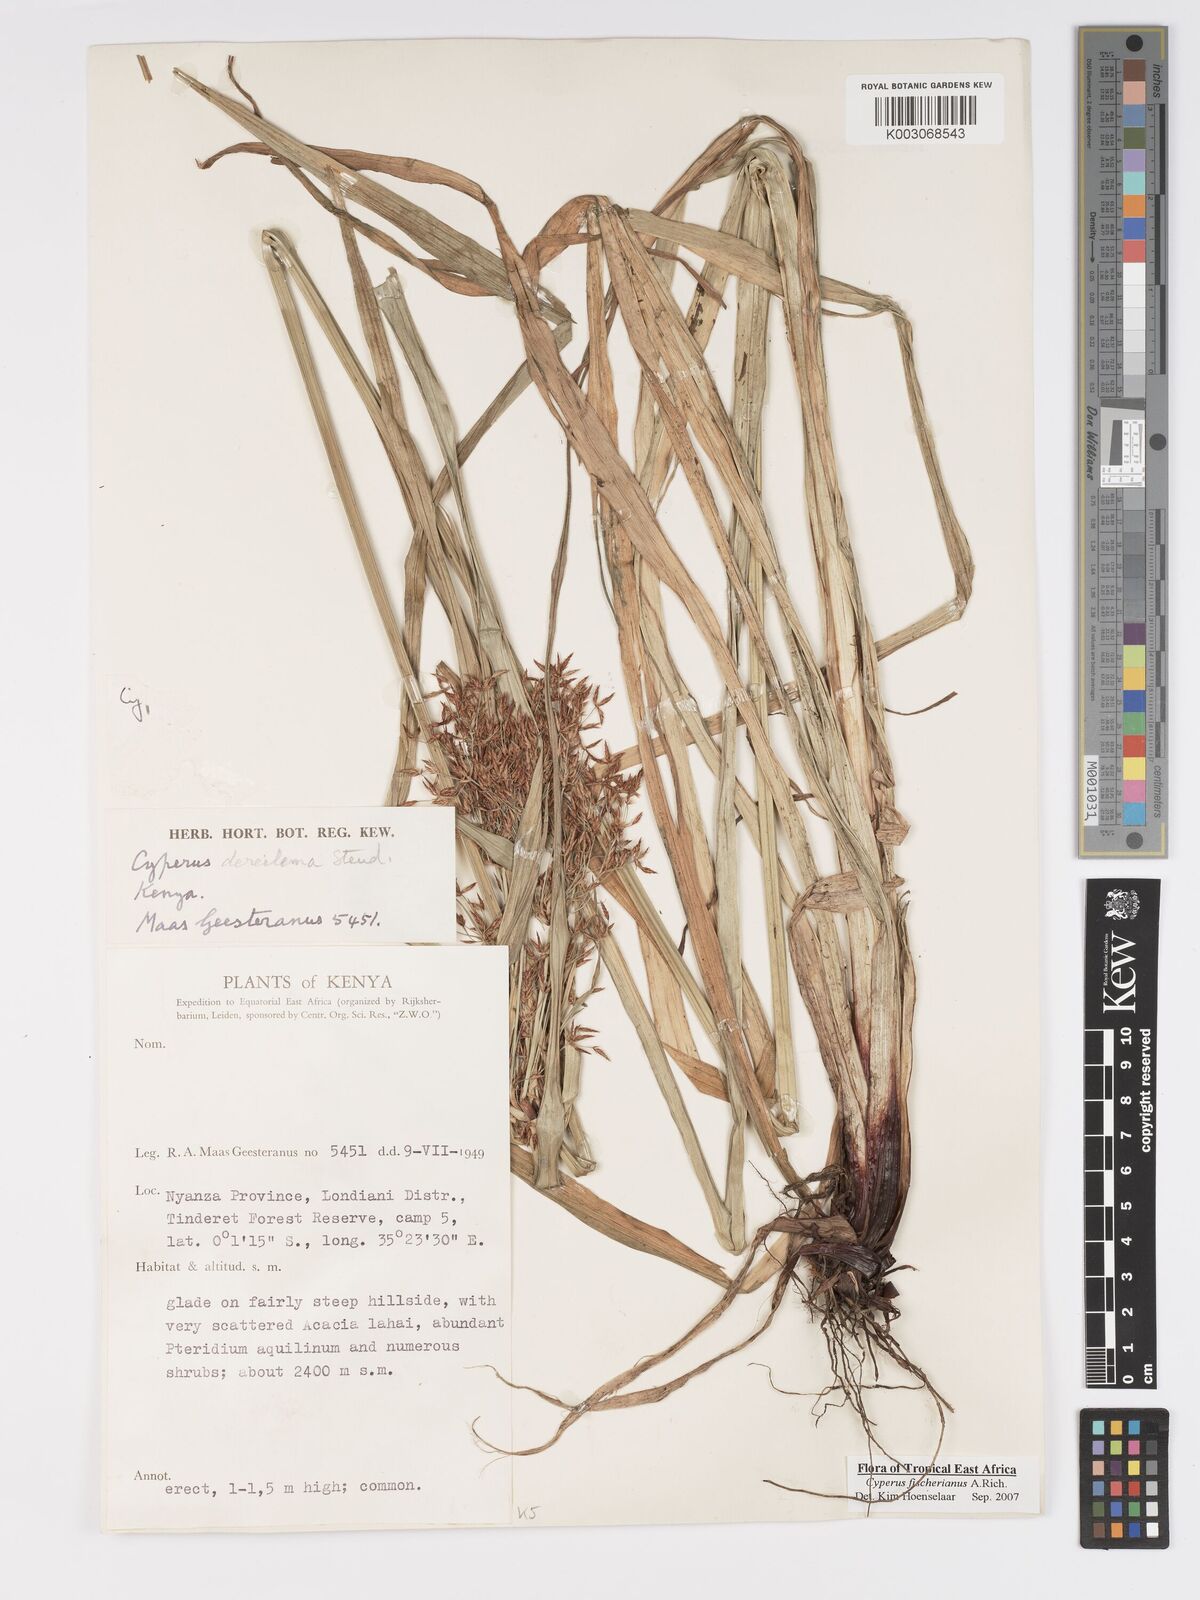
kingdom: Plantae
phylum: Tracheophyta
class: Liliopsida
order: Poales
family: Cyperaceae
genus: Cyperus
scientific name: Cyperus fischerianus
